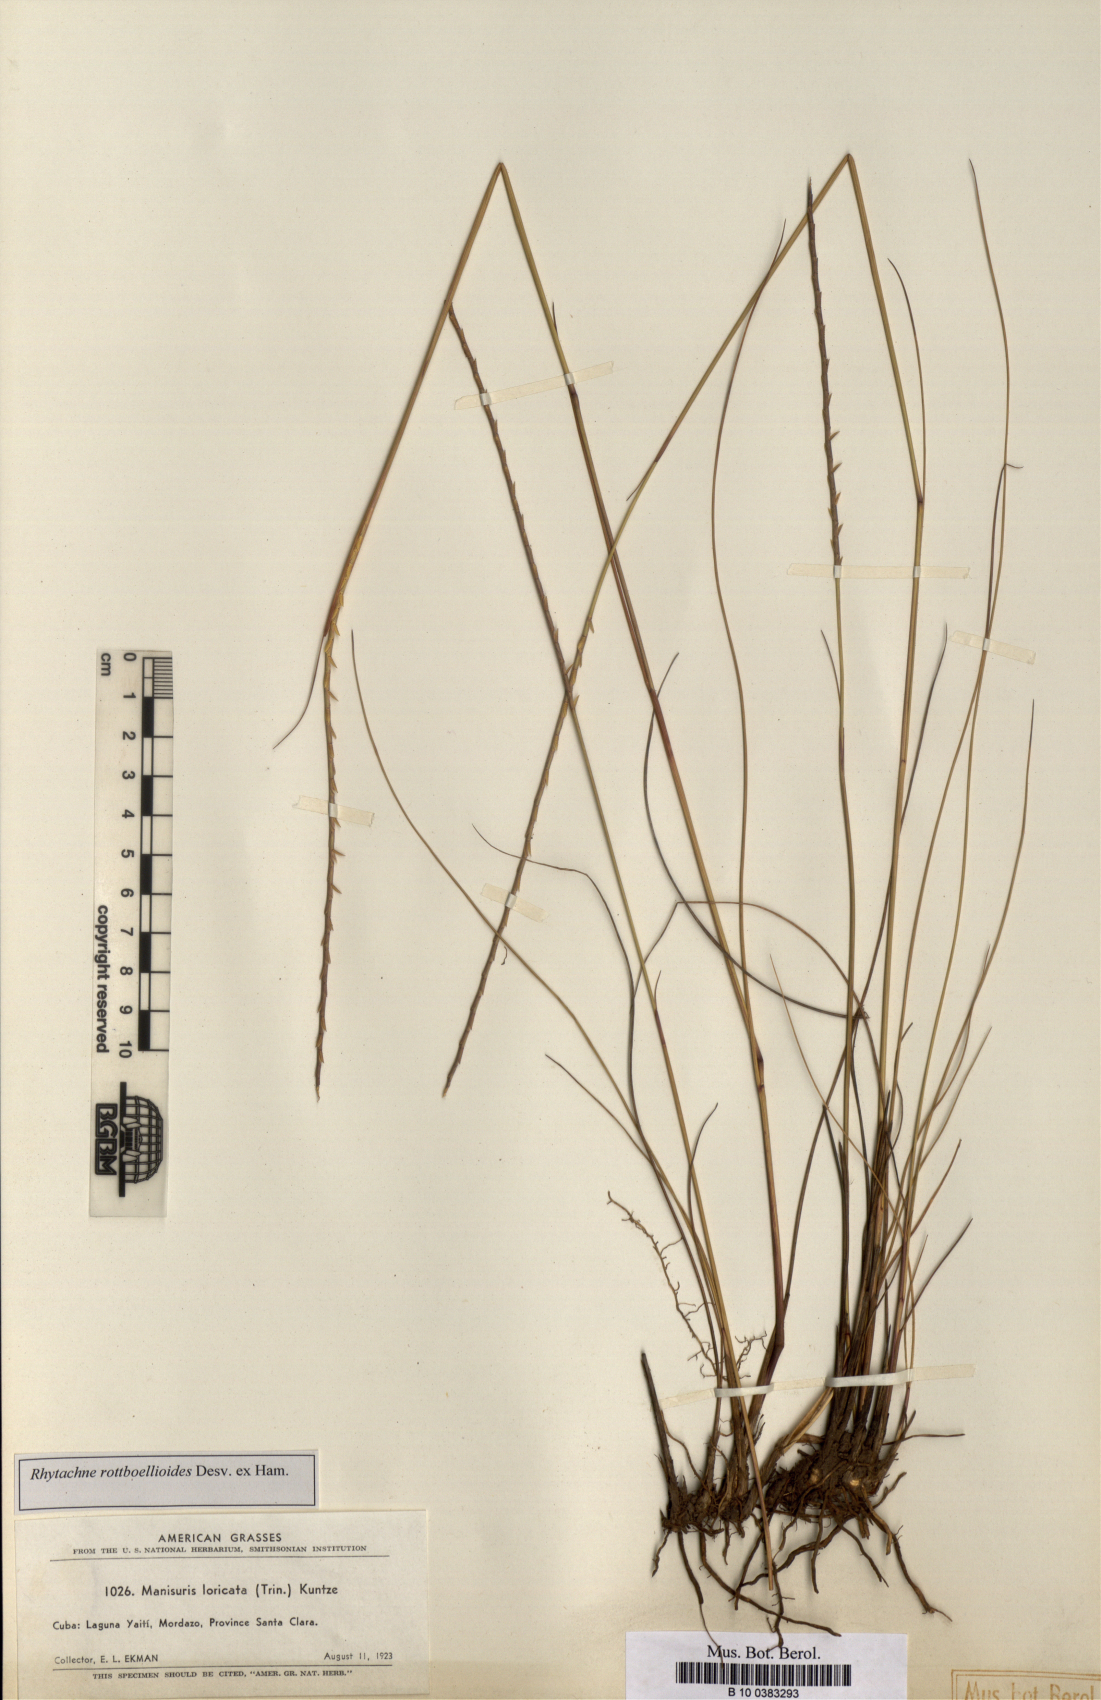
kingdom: Plantae
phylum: Tracheophyta
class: Liliopsida
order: Poales
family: Poaceae
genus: Rhytachne
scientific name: Rhytachne rottboellioides
